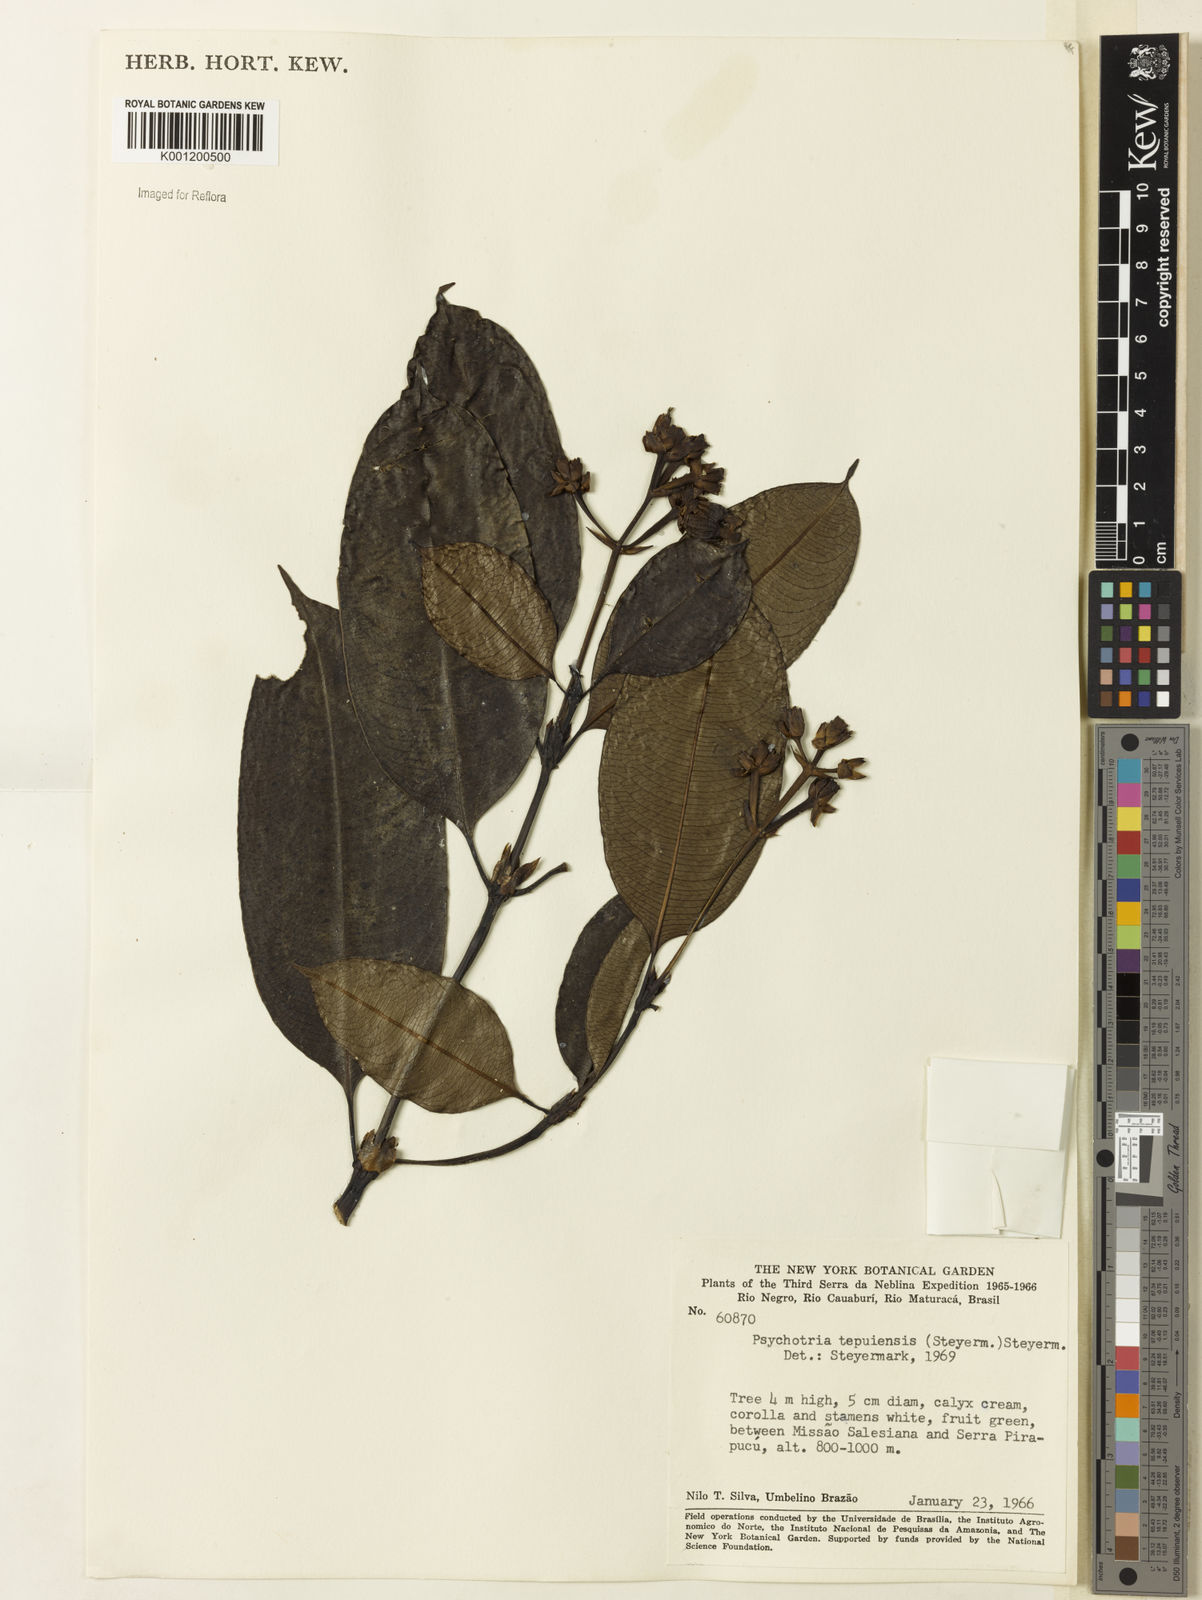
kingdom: Plantae
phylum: Tracheophyta
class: Magnoliopsida
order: Gentianales
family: Rubiaceae
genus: Palicourea
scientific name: Palicourea tepuiensis
